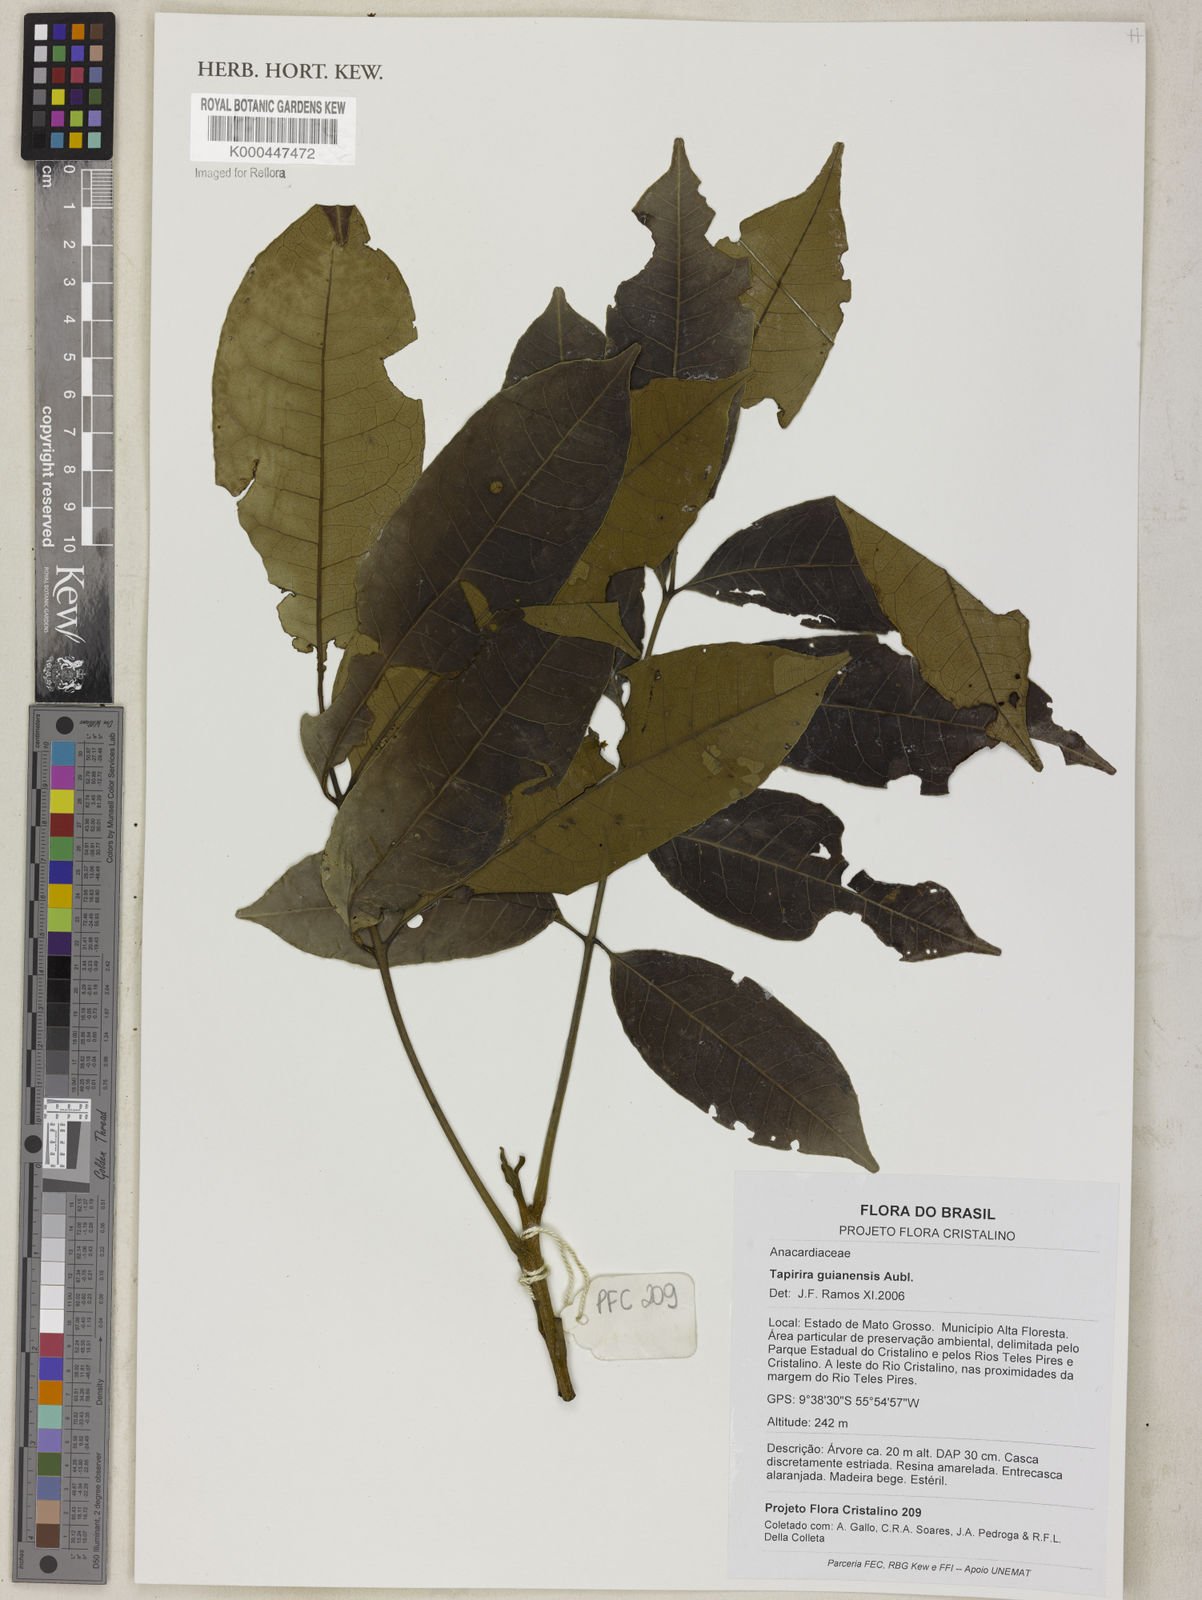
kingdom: Plantae
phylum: Tracheophyta
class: Magnoliopsida
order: Sapindales
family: Anacardiaceae
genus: Tapirira
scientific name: Tapirira guianensis
